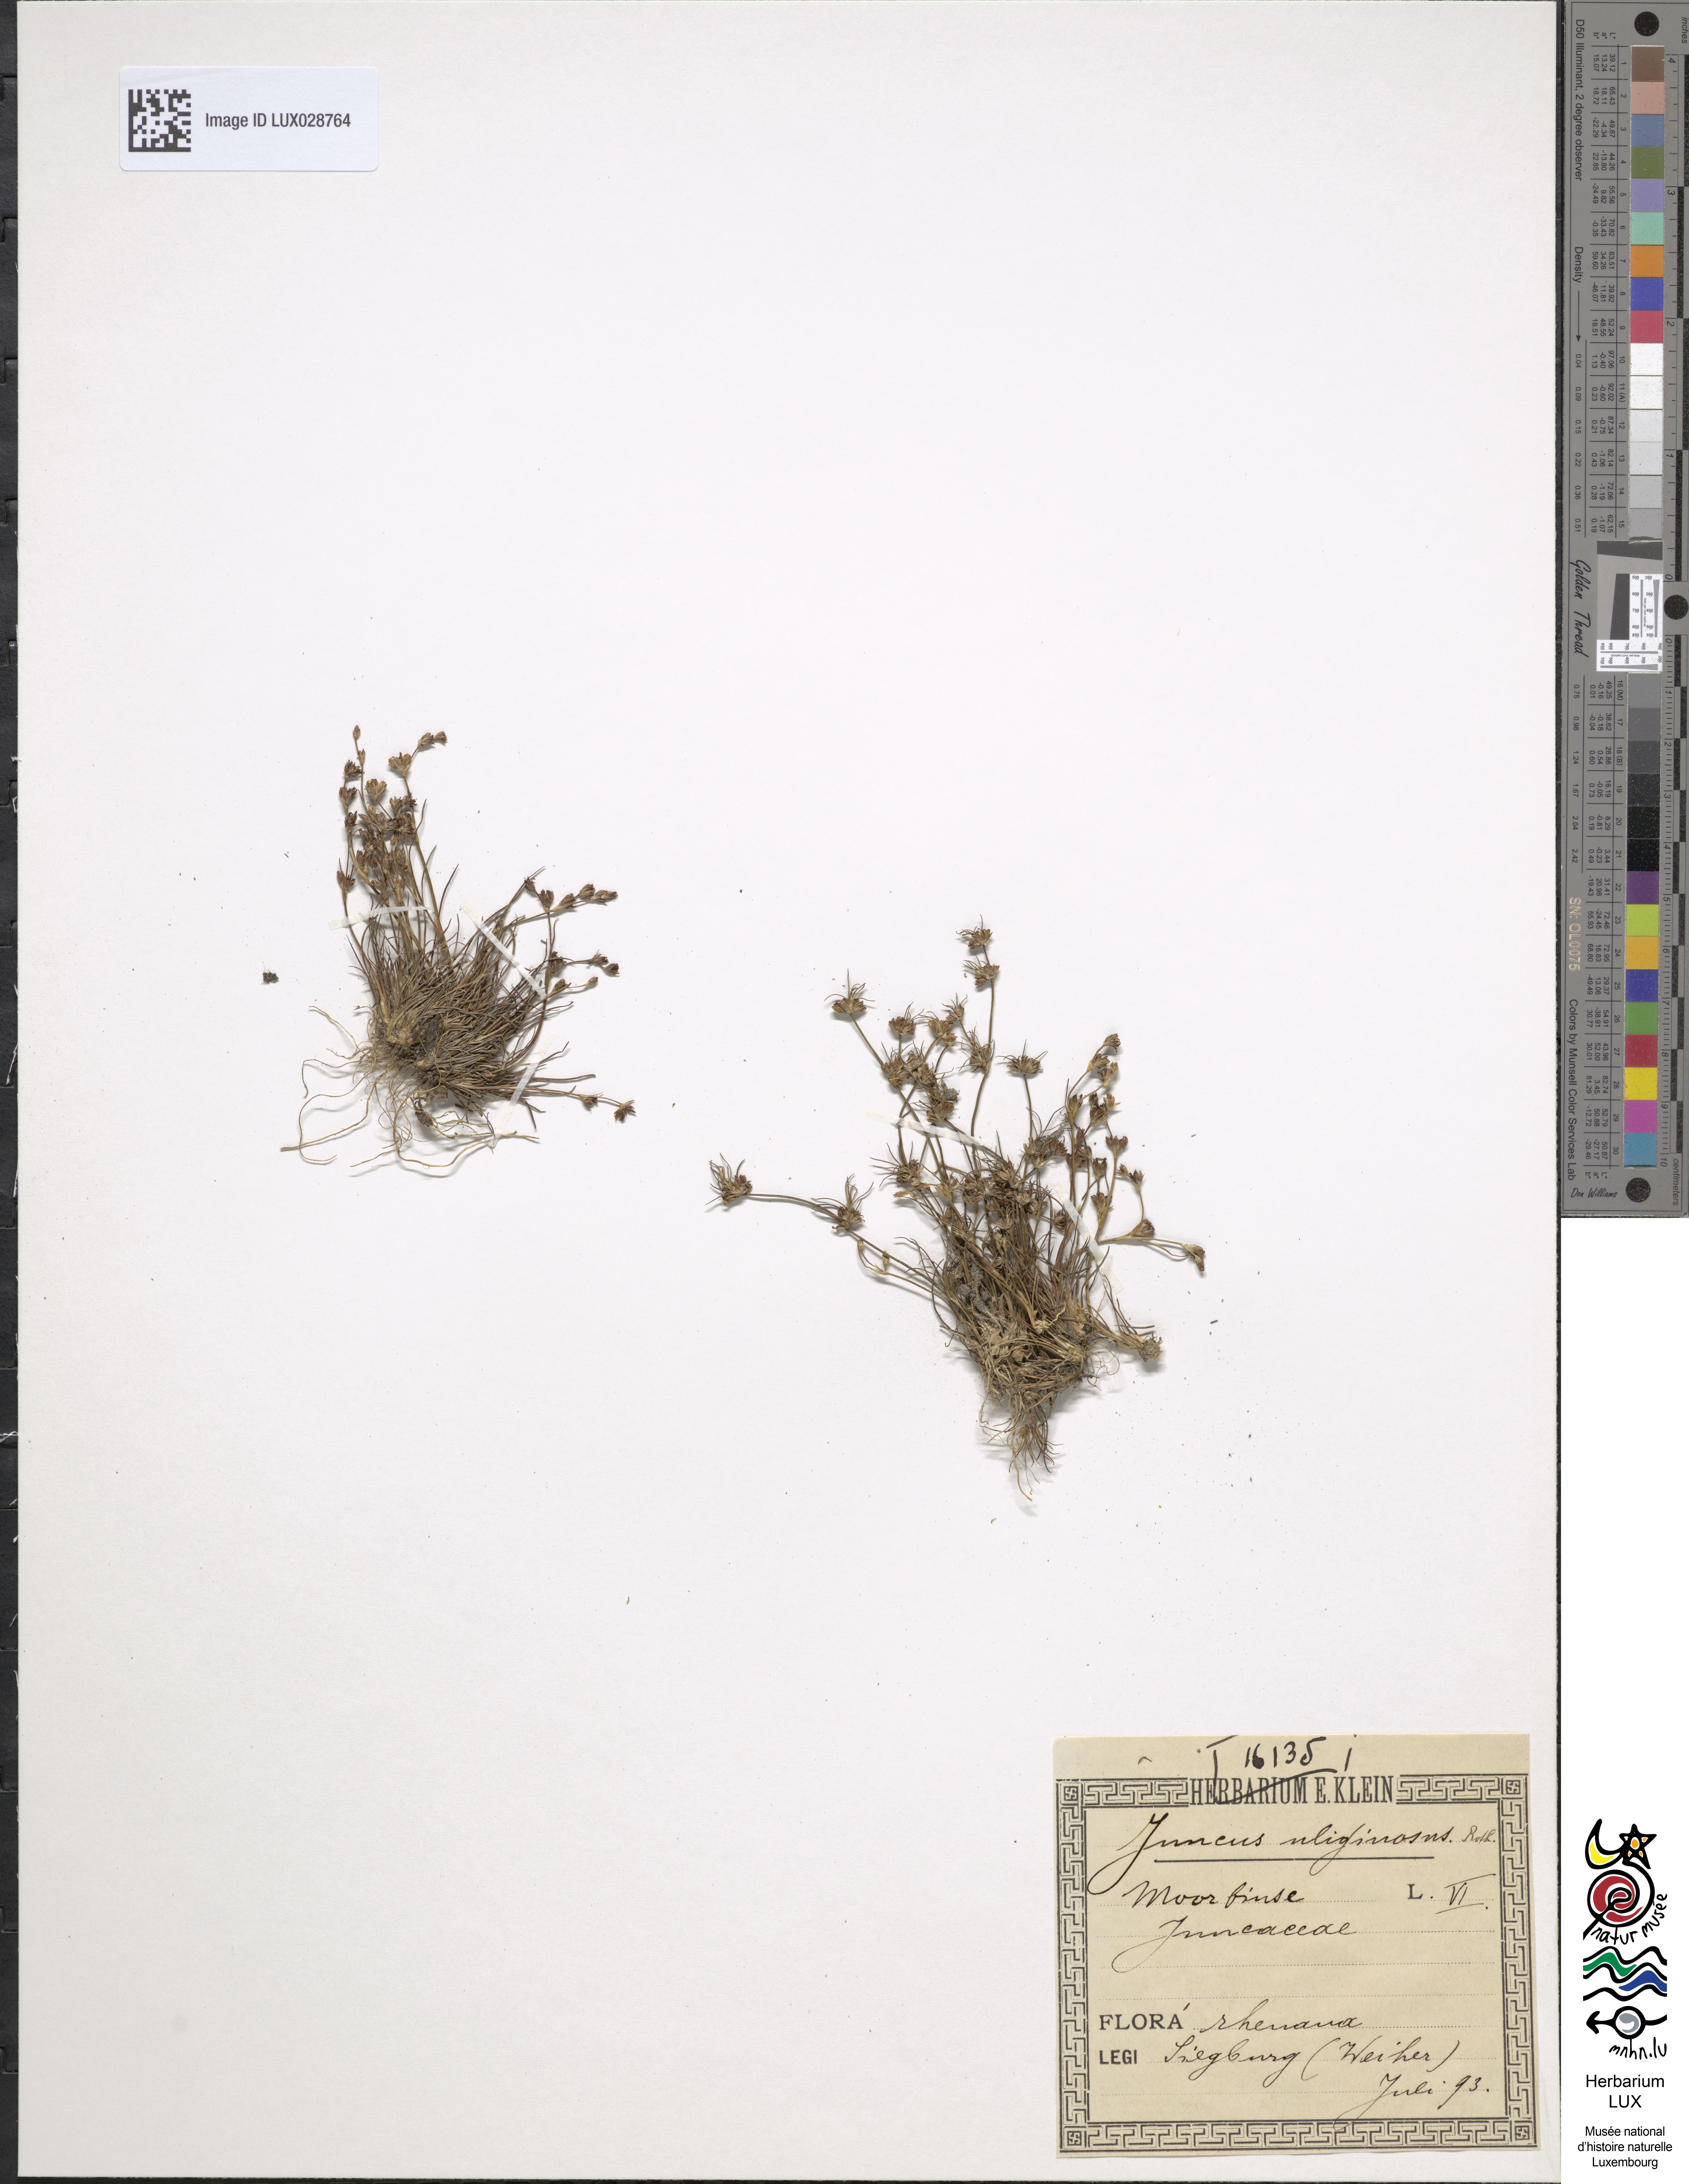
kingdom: Plantae
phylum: Tracheophyta
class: Liliopsida
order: Poales
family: Juncaceae
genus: Juncus
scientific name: Juncus bulbosus
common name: Bulbous rush
